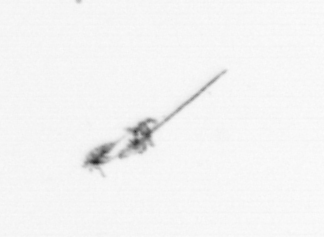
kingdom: Animalia
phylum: Arthropoda
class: Copepoda
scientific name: Copepoda
